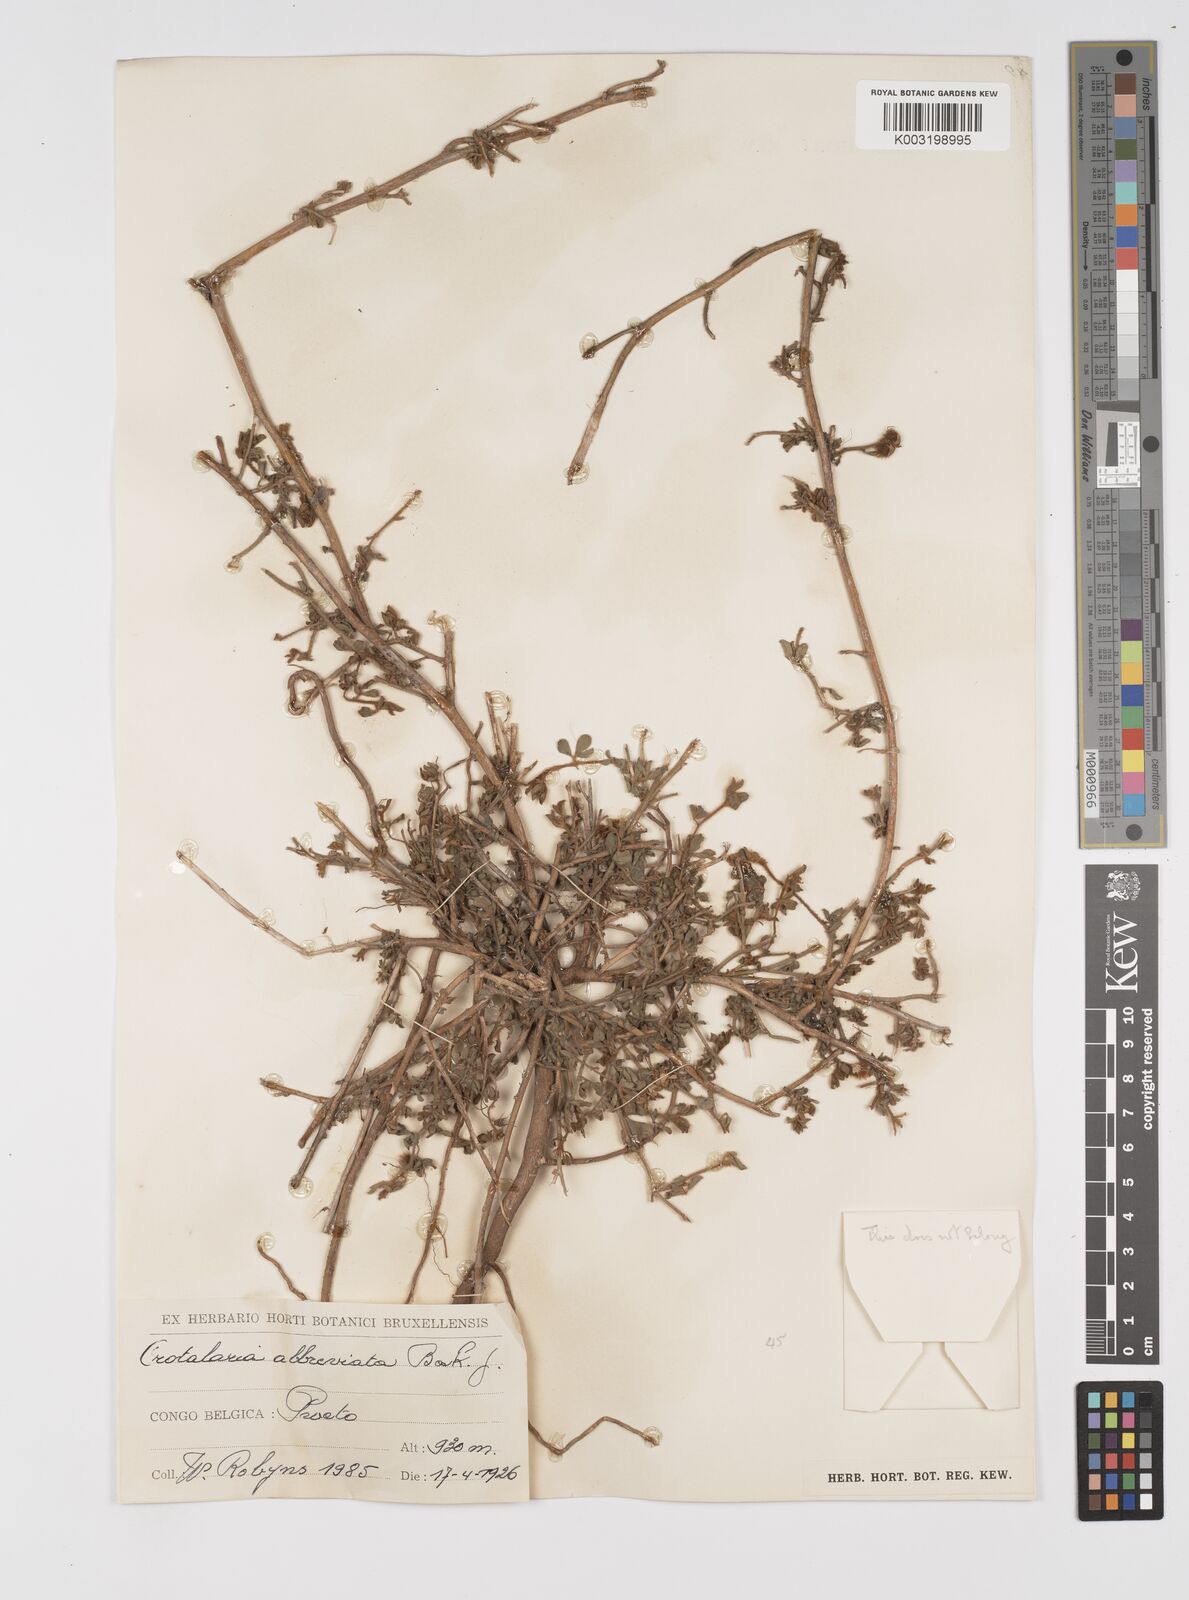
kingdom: Plantae
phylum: Tracheophyta
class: Magnoliopsida
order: Fabales
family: Fabaceae
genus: Crotalaria
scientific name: Crotalaria abbreviata
